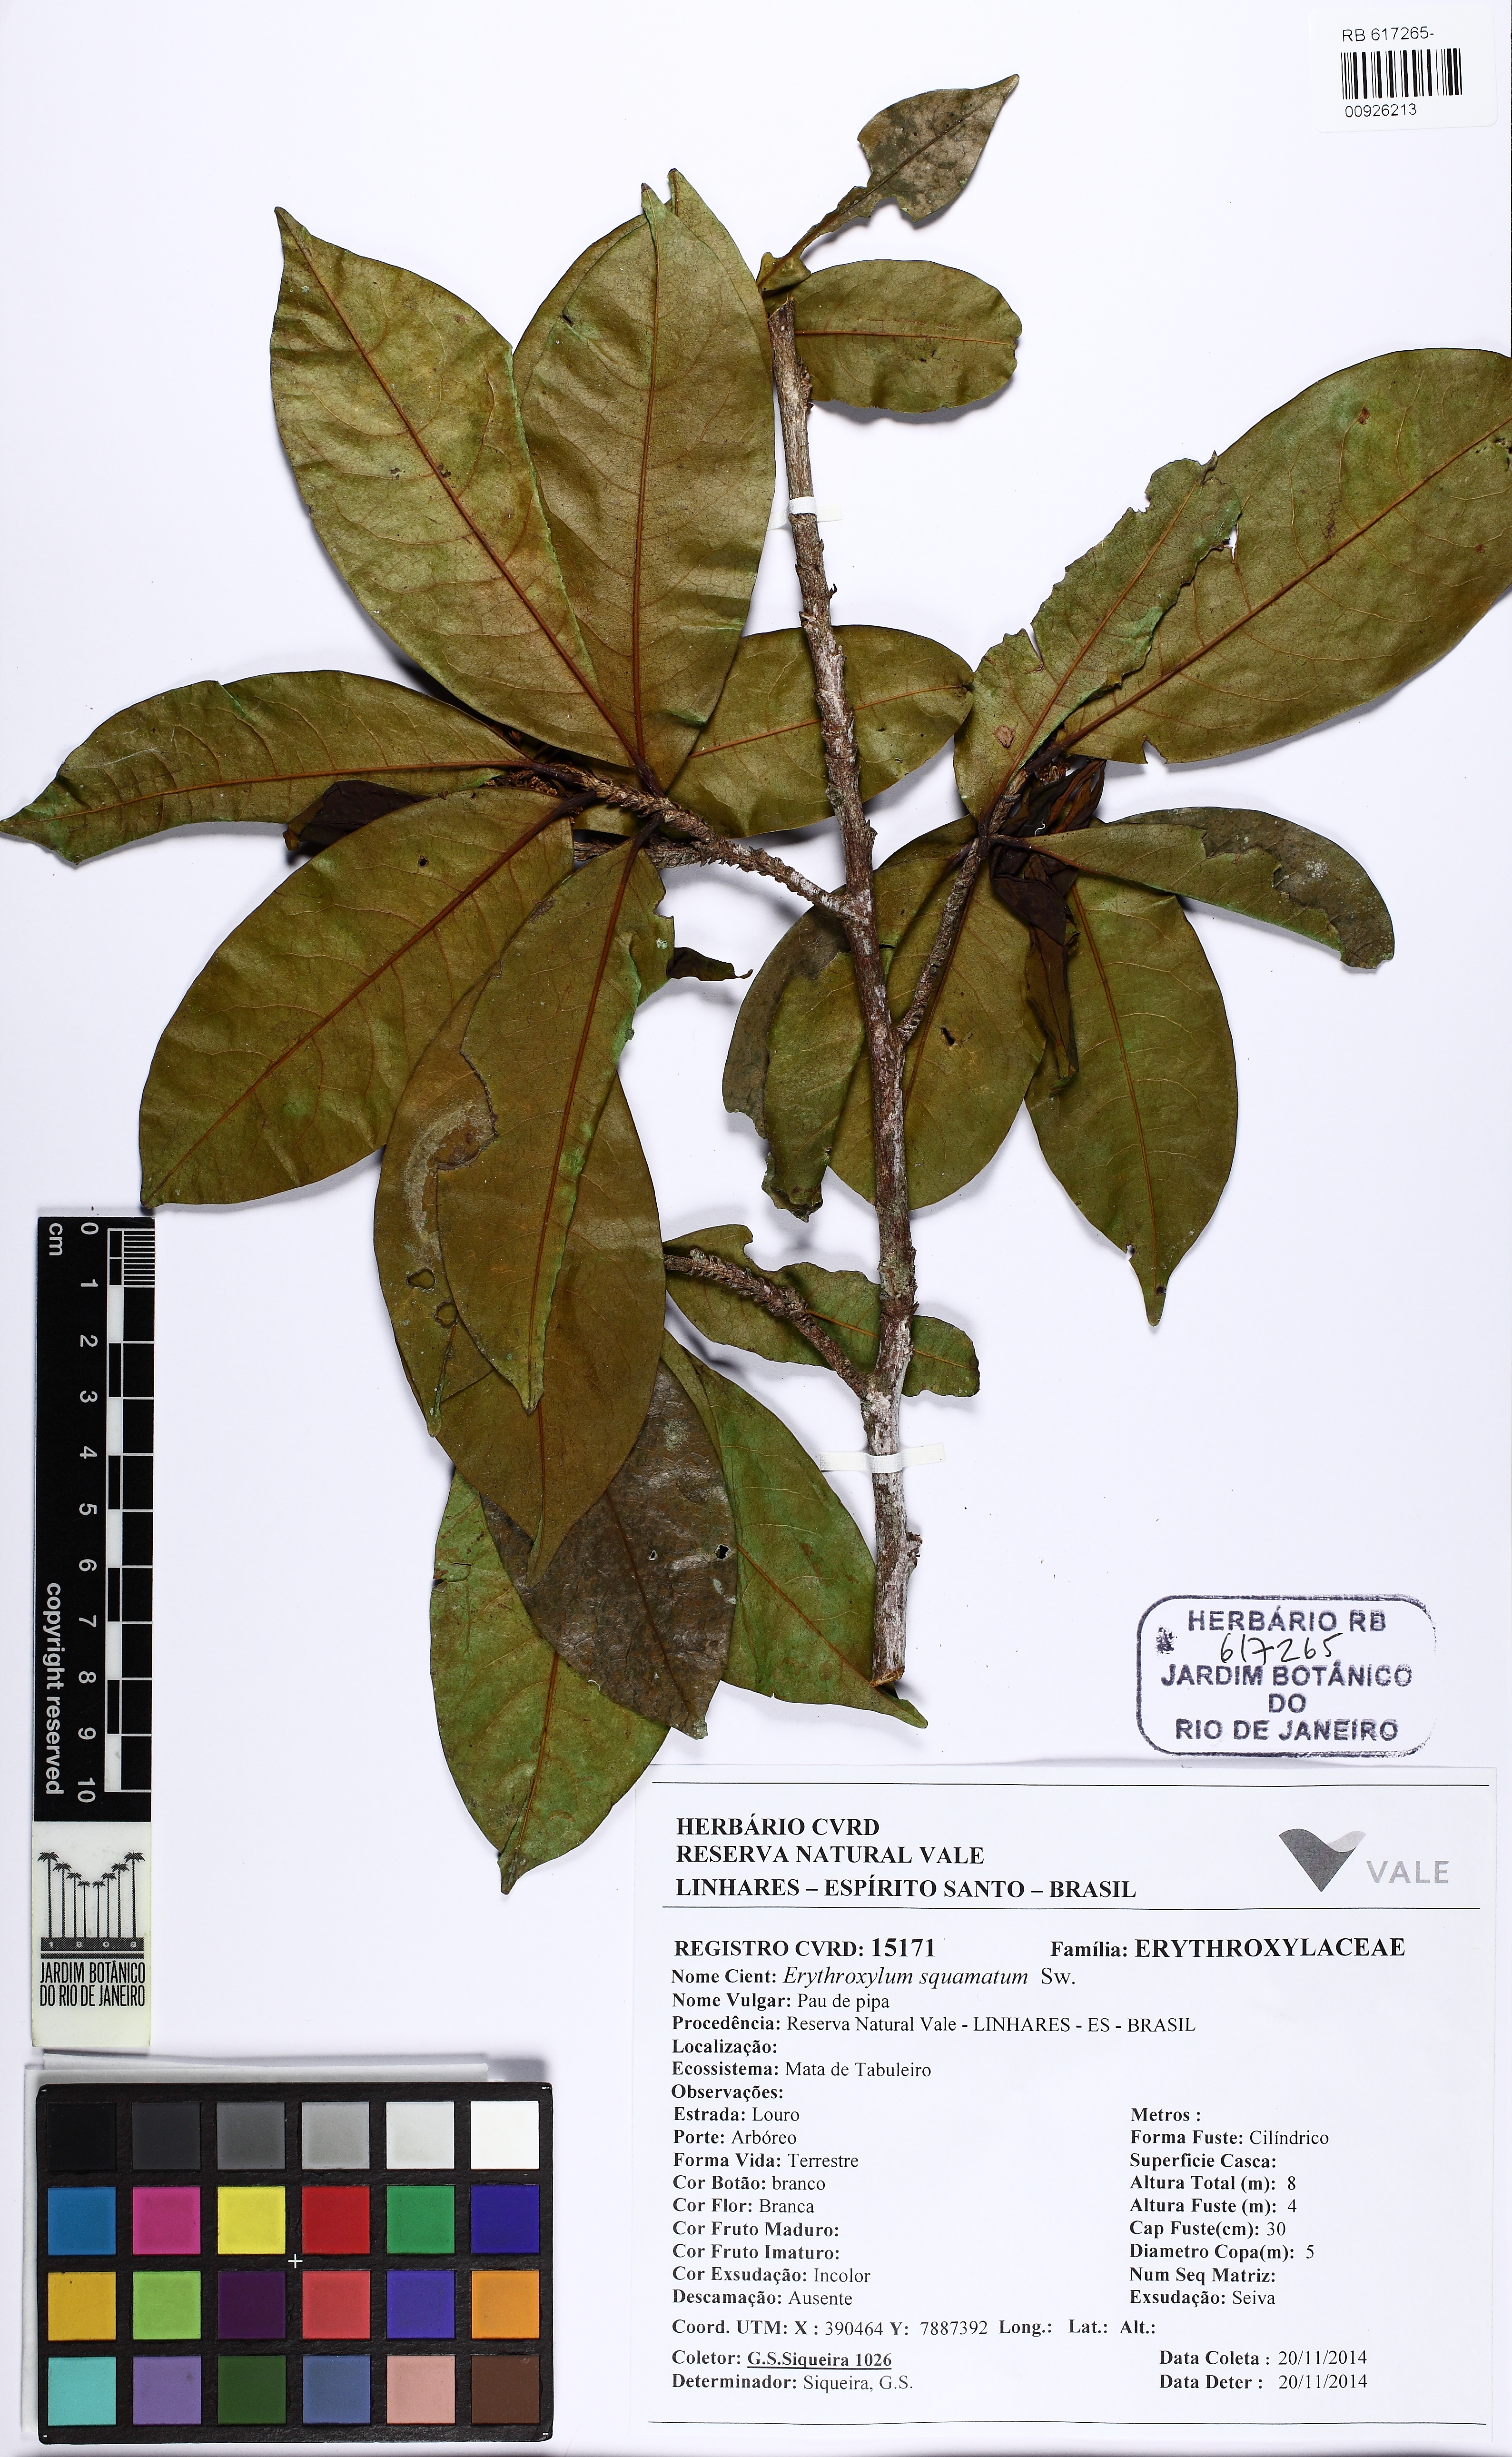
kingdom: Plantae
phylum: Tracheophyta
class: Magnoliopsida
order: Malpighiales
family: Erythroxylaceae
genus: Erythroxylum
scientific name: Erythroxylum squamatum
